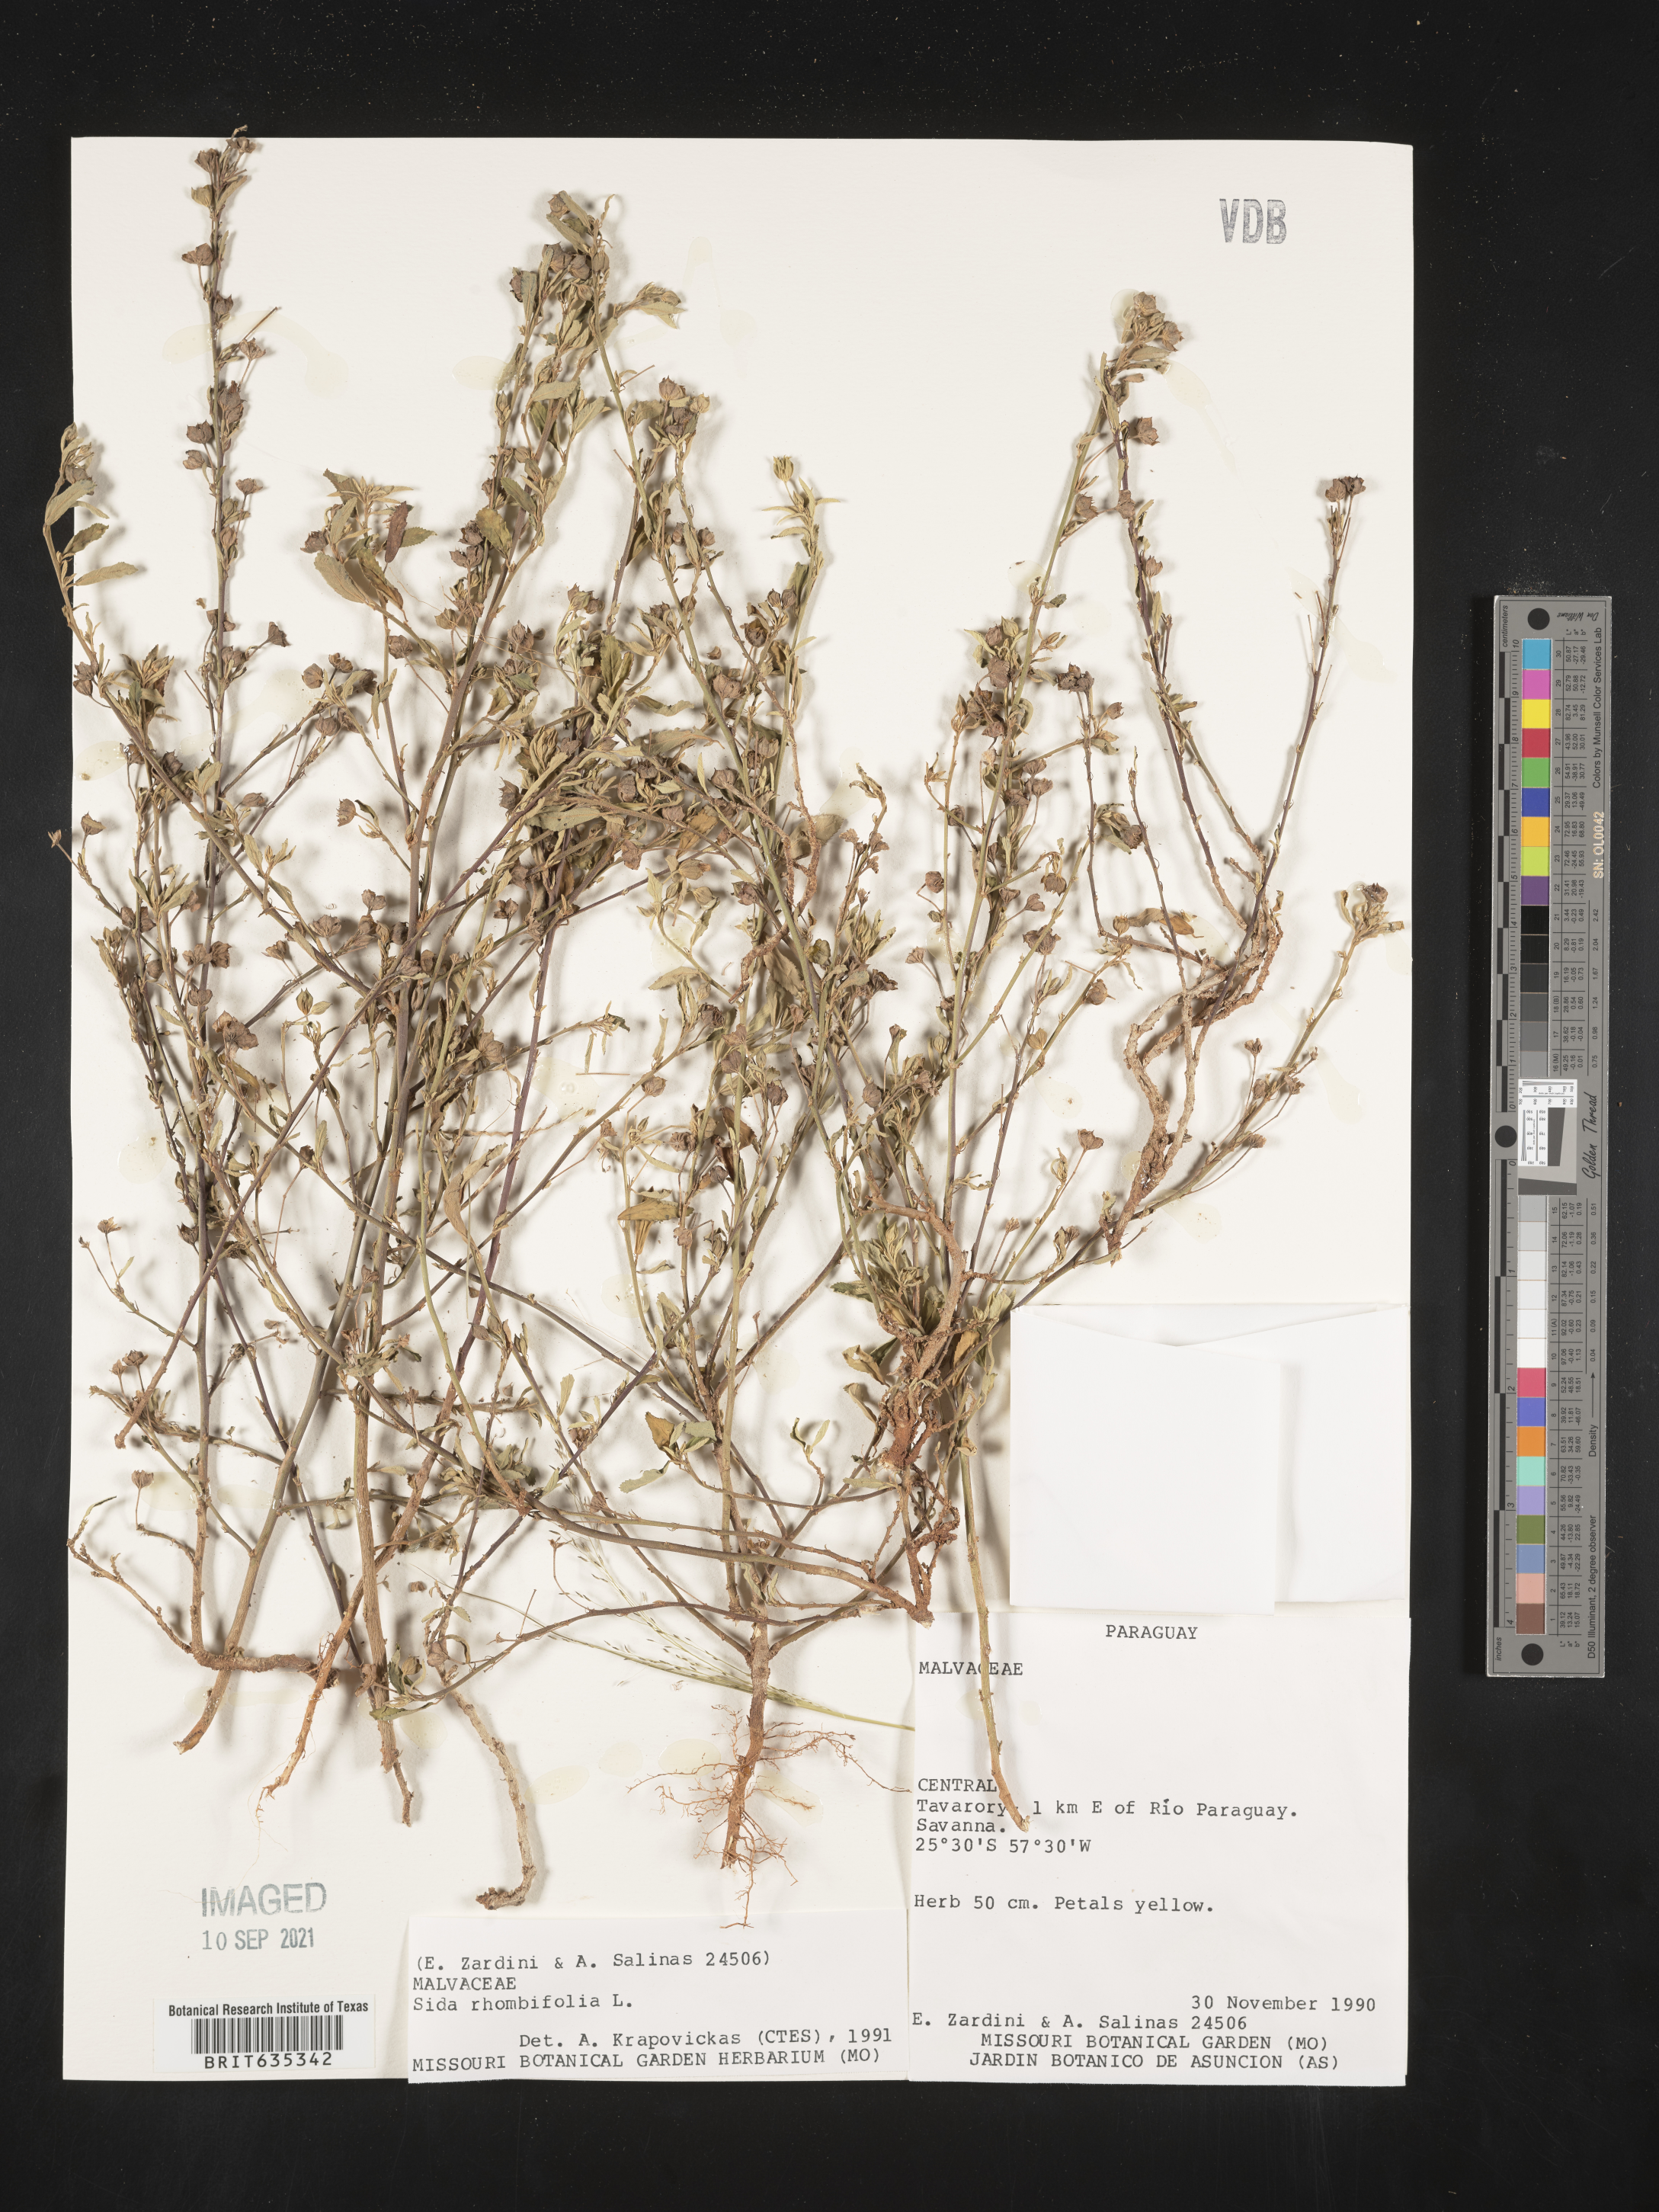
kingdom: Plantae
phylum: Tracheophyta
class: Magnoliopsida
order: Malvales
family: Malvaceae
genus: Sida
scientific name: Sida
